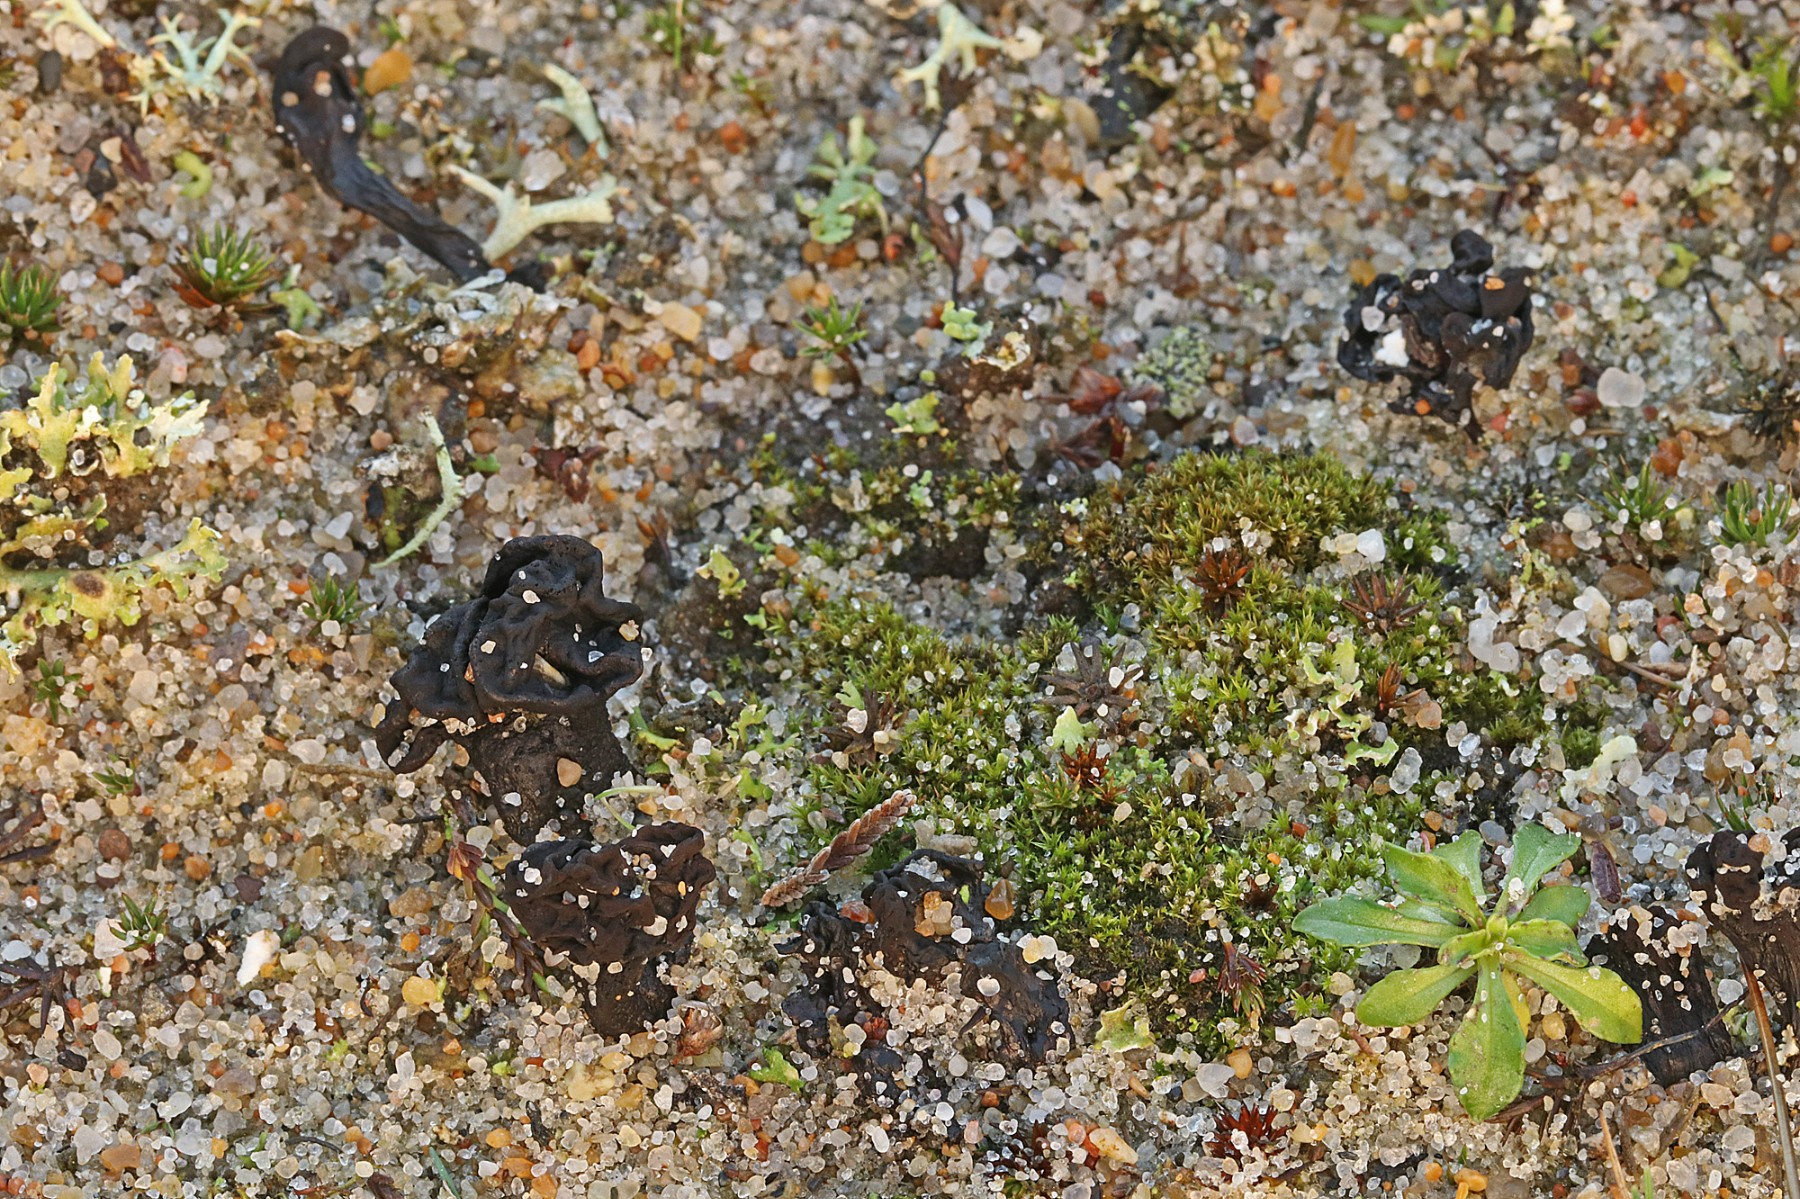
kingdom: Fungi
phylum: Ascomycota
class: Geoglossomycetes
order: Geoglossales
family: Geoglossaceae
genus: Sabuloglossum
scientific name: Sabuloglossum arenarium
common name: klit-jordtunge
